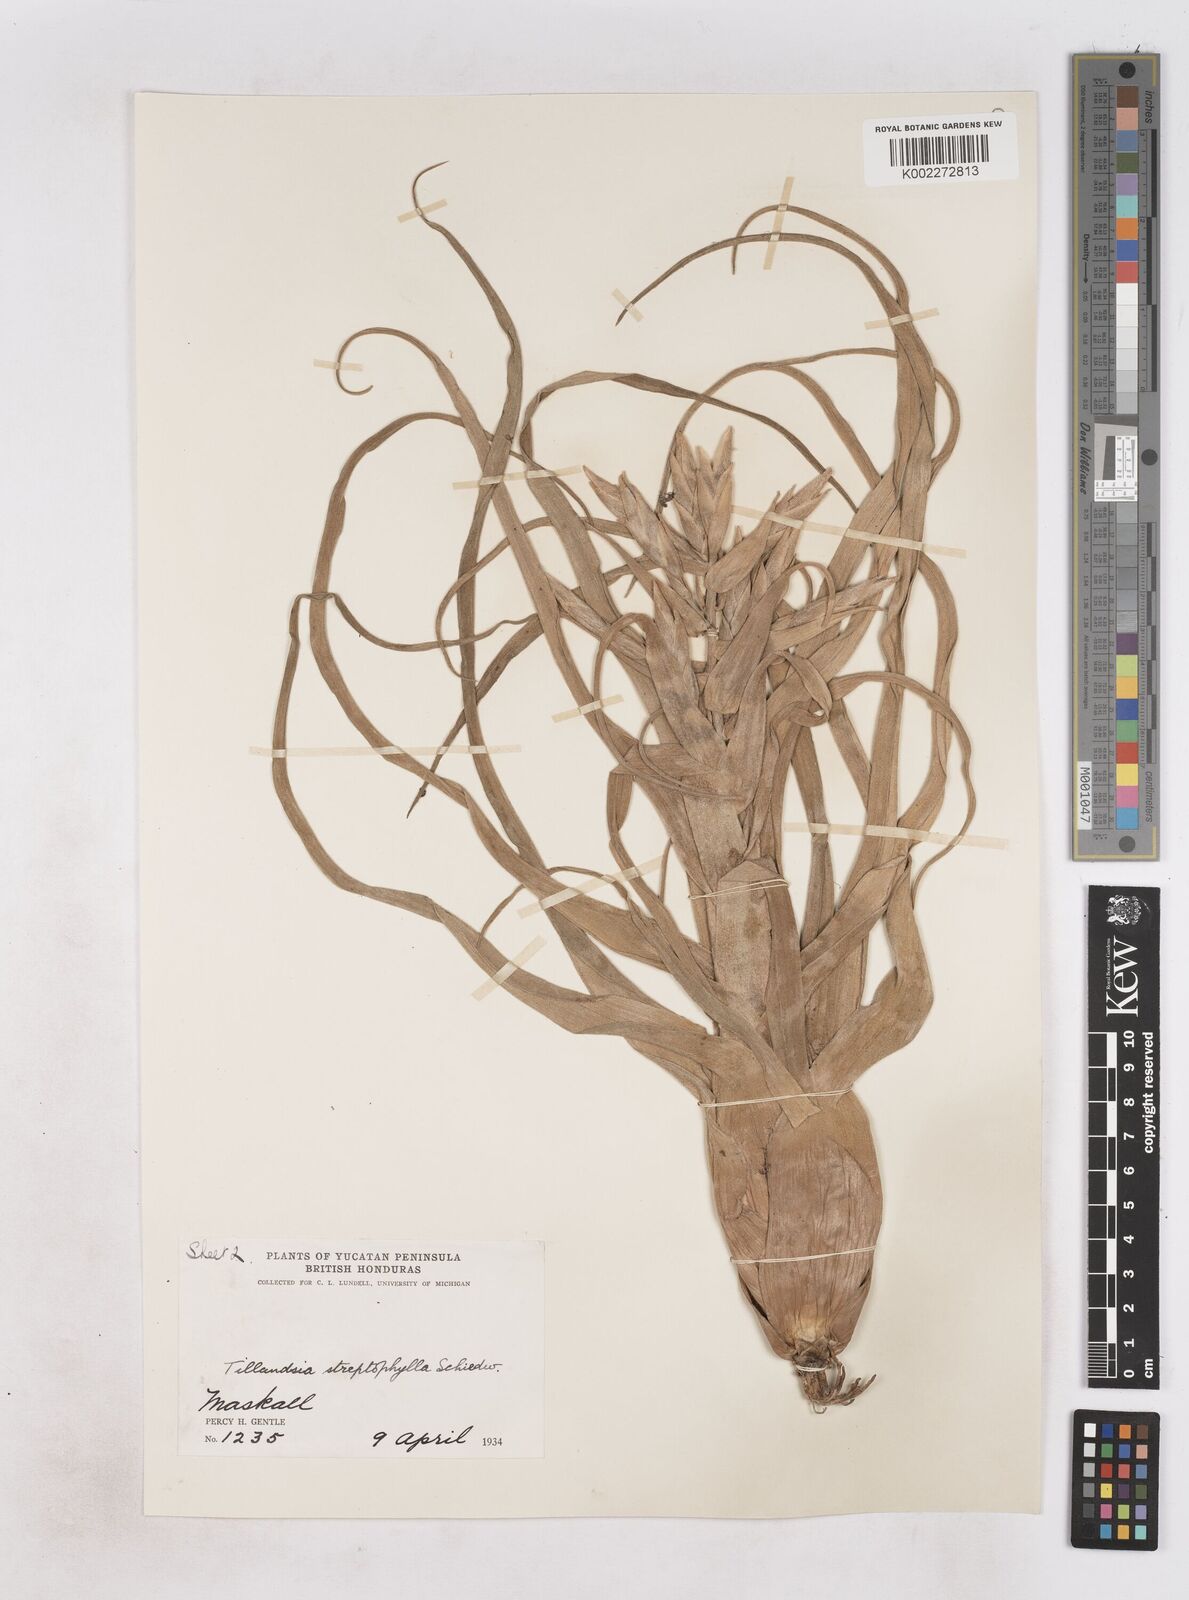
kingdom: Plantae
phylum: Tracheophyta
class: Liliopsida
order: Poales
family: Bromeliaceae
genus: Tillandsia
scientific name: Tillandsia streptophylla
